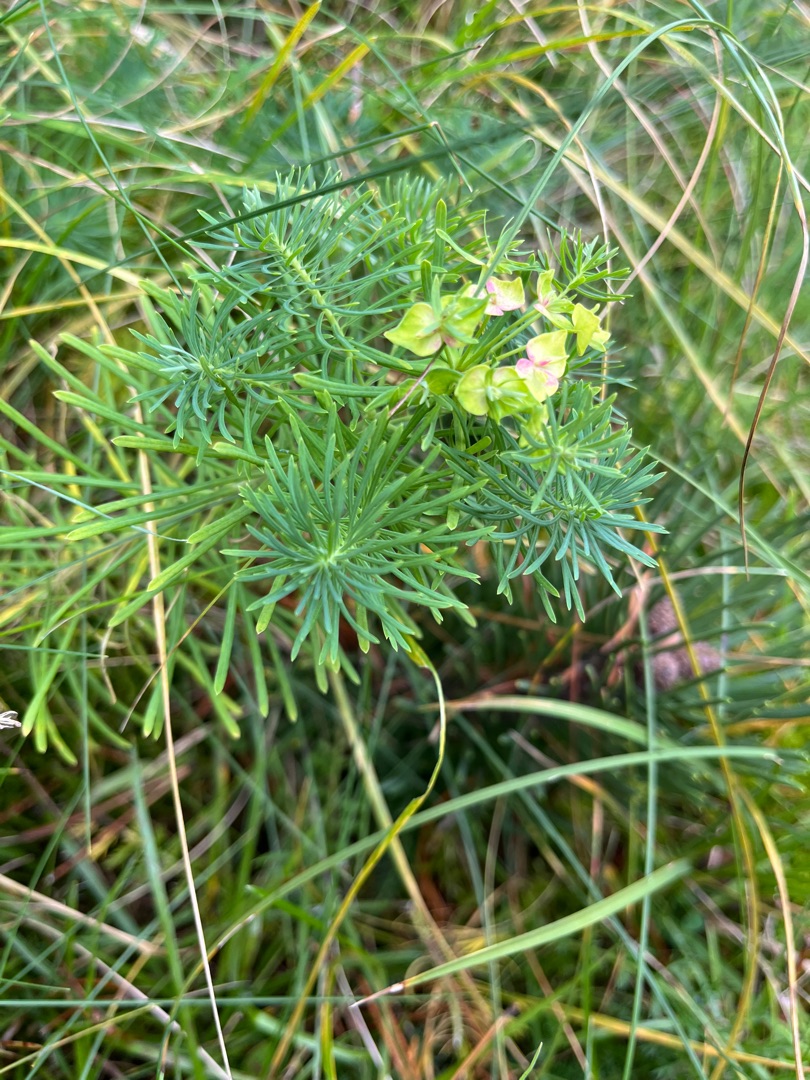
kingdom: Plantae
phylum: Tracheophyta
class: Magnoliopsida
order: Malpighiales
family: Euphorbiaceae
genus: Euphorbia
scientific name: Euphorbia cyparissias
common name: Cypres-vortemælk
